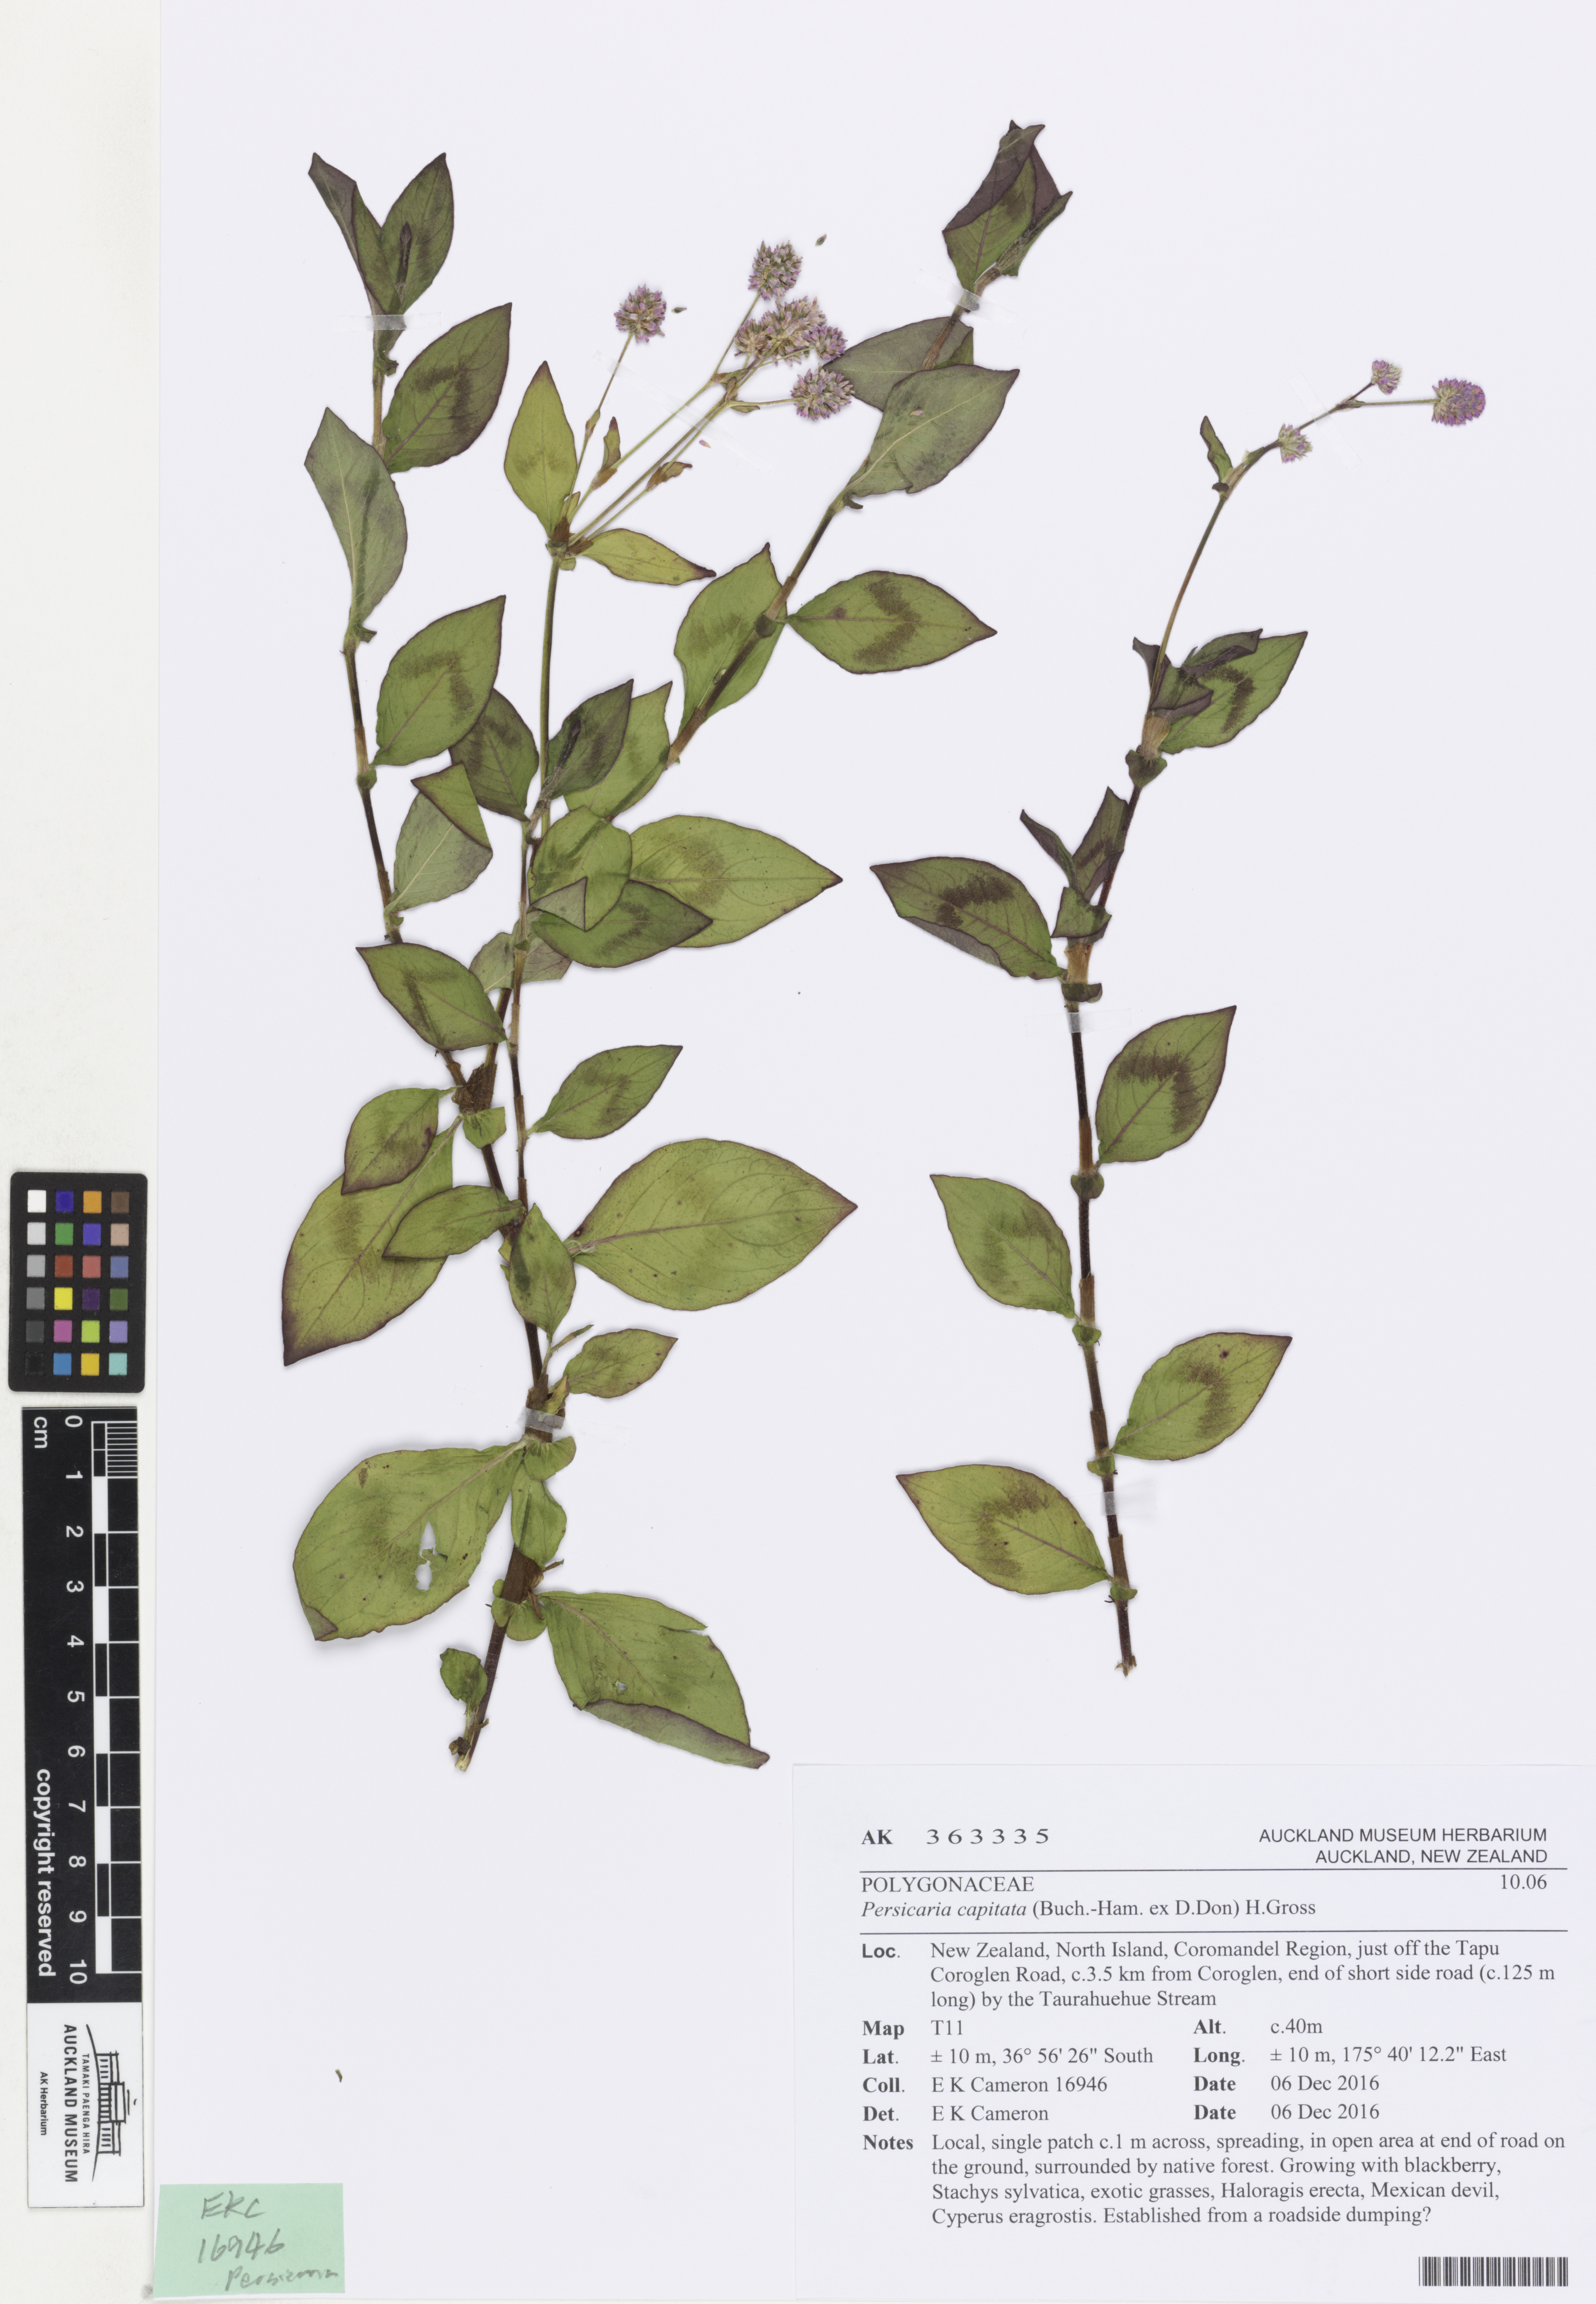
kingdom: Plantae
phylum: Tracheophyta
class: Magnoliopsida
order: Caryophyllales
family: Polygonaceae
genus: Persicaria
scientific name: Persicaria capitata
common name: Pinkhead smartweed
